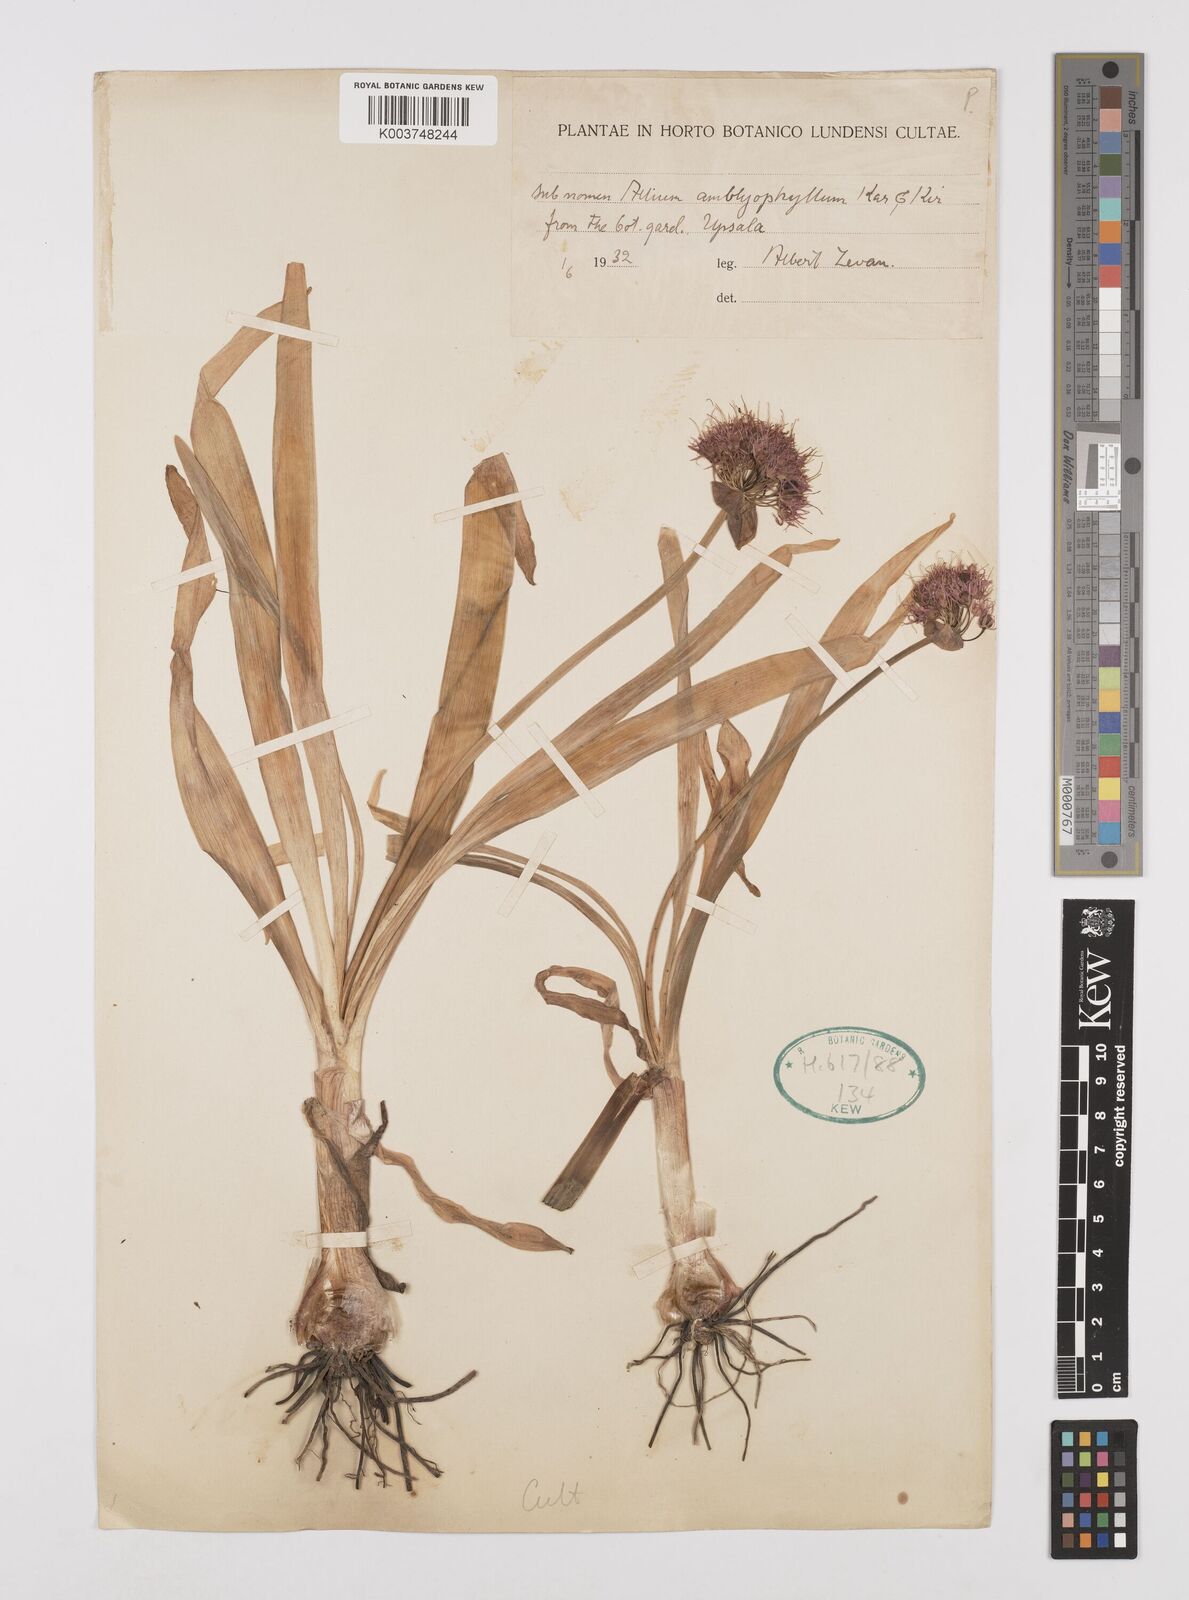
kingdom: Plantae
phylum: Tracheophyta
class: Liliopsida
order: Asparagales
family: Amaryllidaceae
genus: Allium
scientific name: Allium platyspathum
